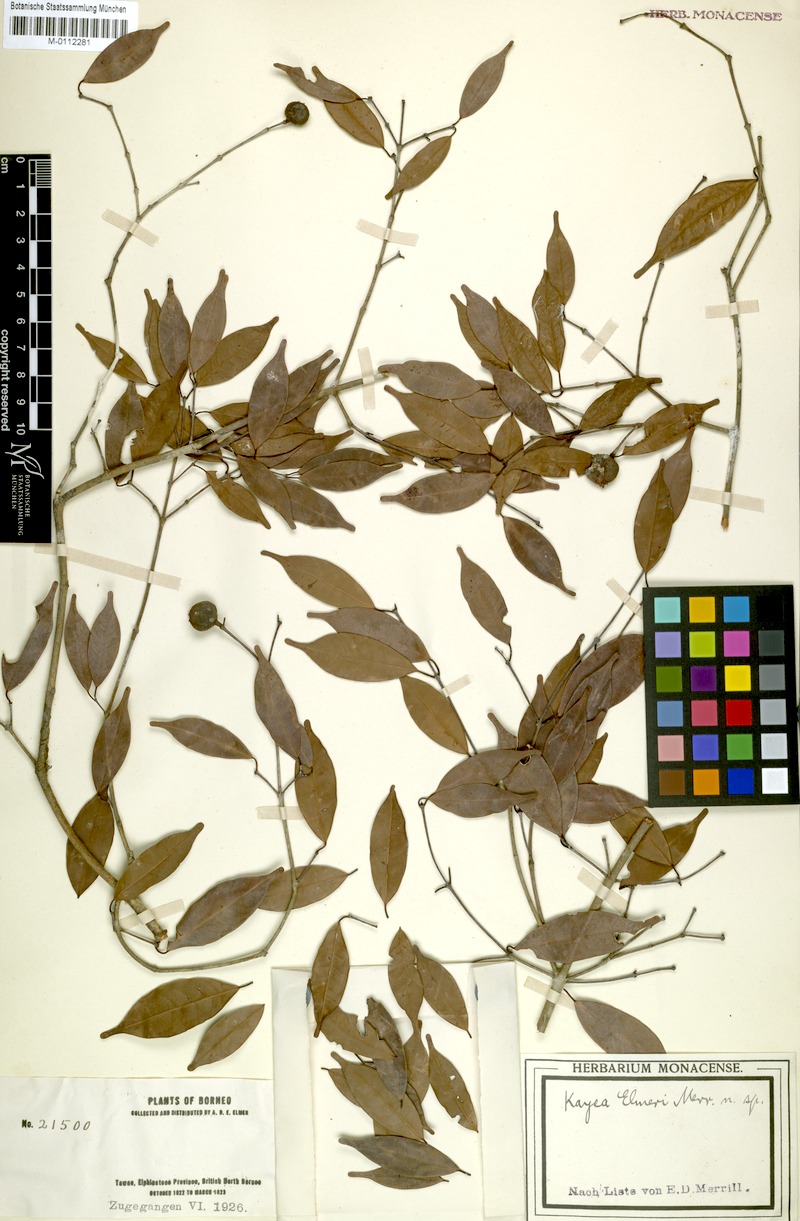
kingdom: Plantae
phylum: Tracheophyta
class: Magnoliopsida
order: Malpighiales
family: Calophyllaceae
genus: Kayea
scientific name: Kayea elmeri
